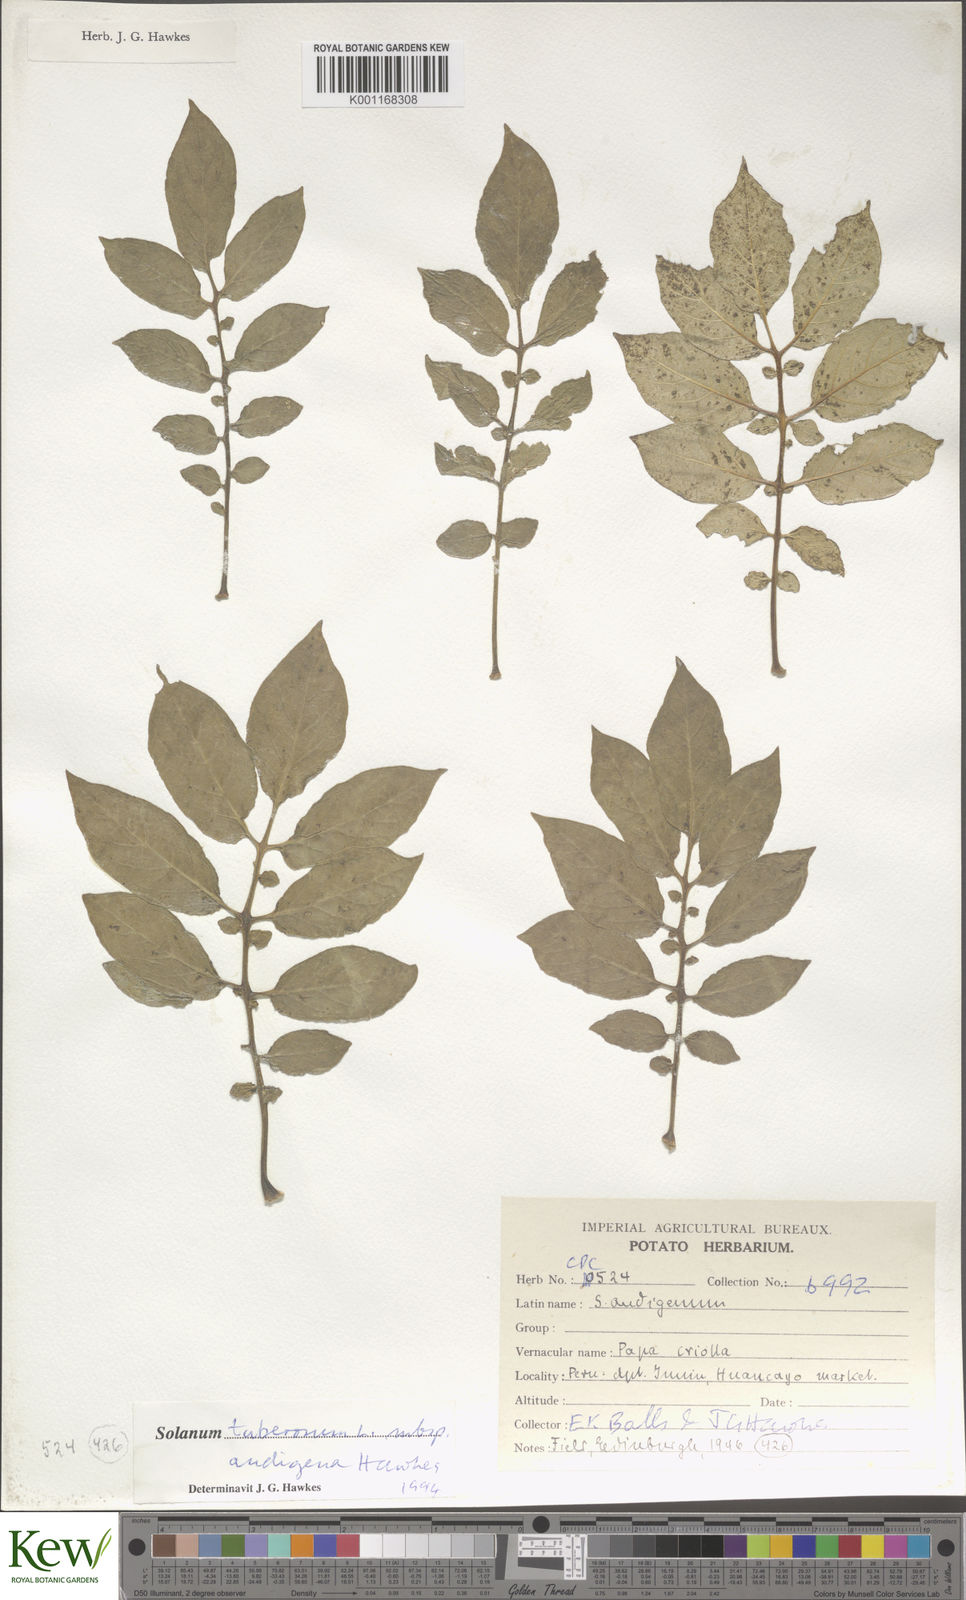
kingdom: Plantae
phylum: Tracheophyta
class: Magnoliopsida
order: Solanales
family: Solanaceae
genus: Solanum
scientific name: Solanum tuberosum
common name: Potato
